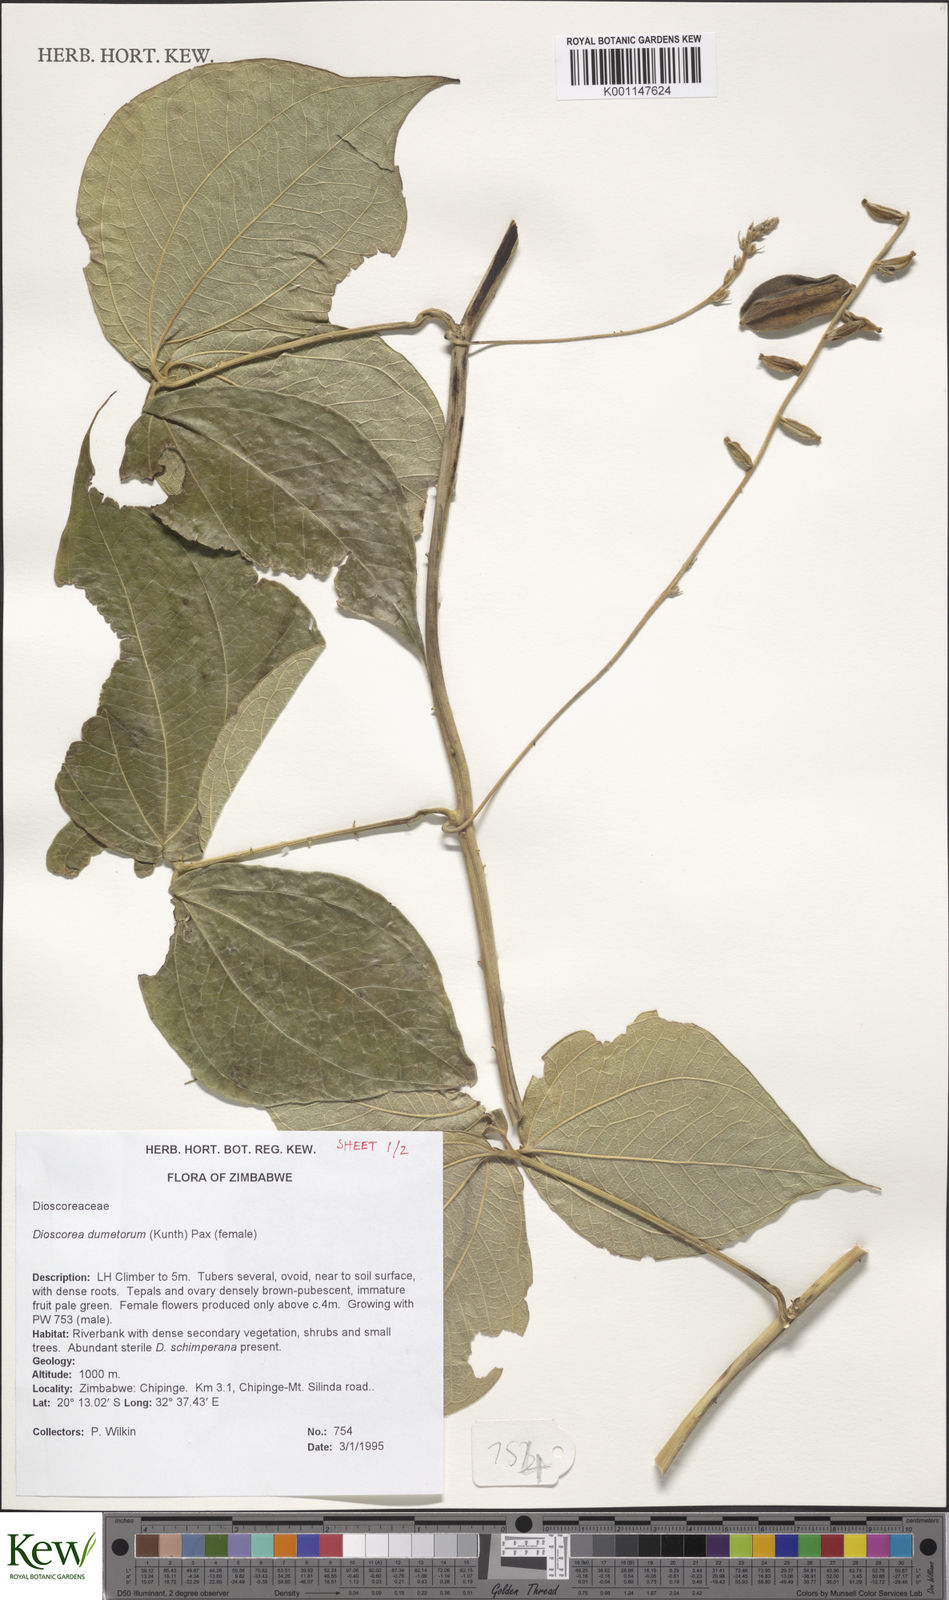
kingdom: Plantae
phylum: Tracheophyta
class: Liliopsida
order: Dioscoreales
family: Dioscoreaceae
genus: Dioscorea
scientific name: Dioscorea dumetorum
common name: African bitter yam
